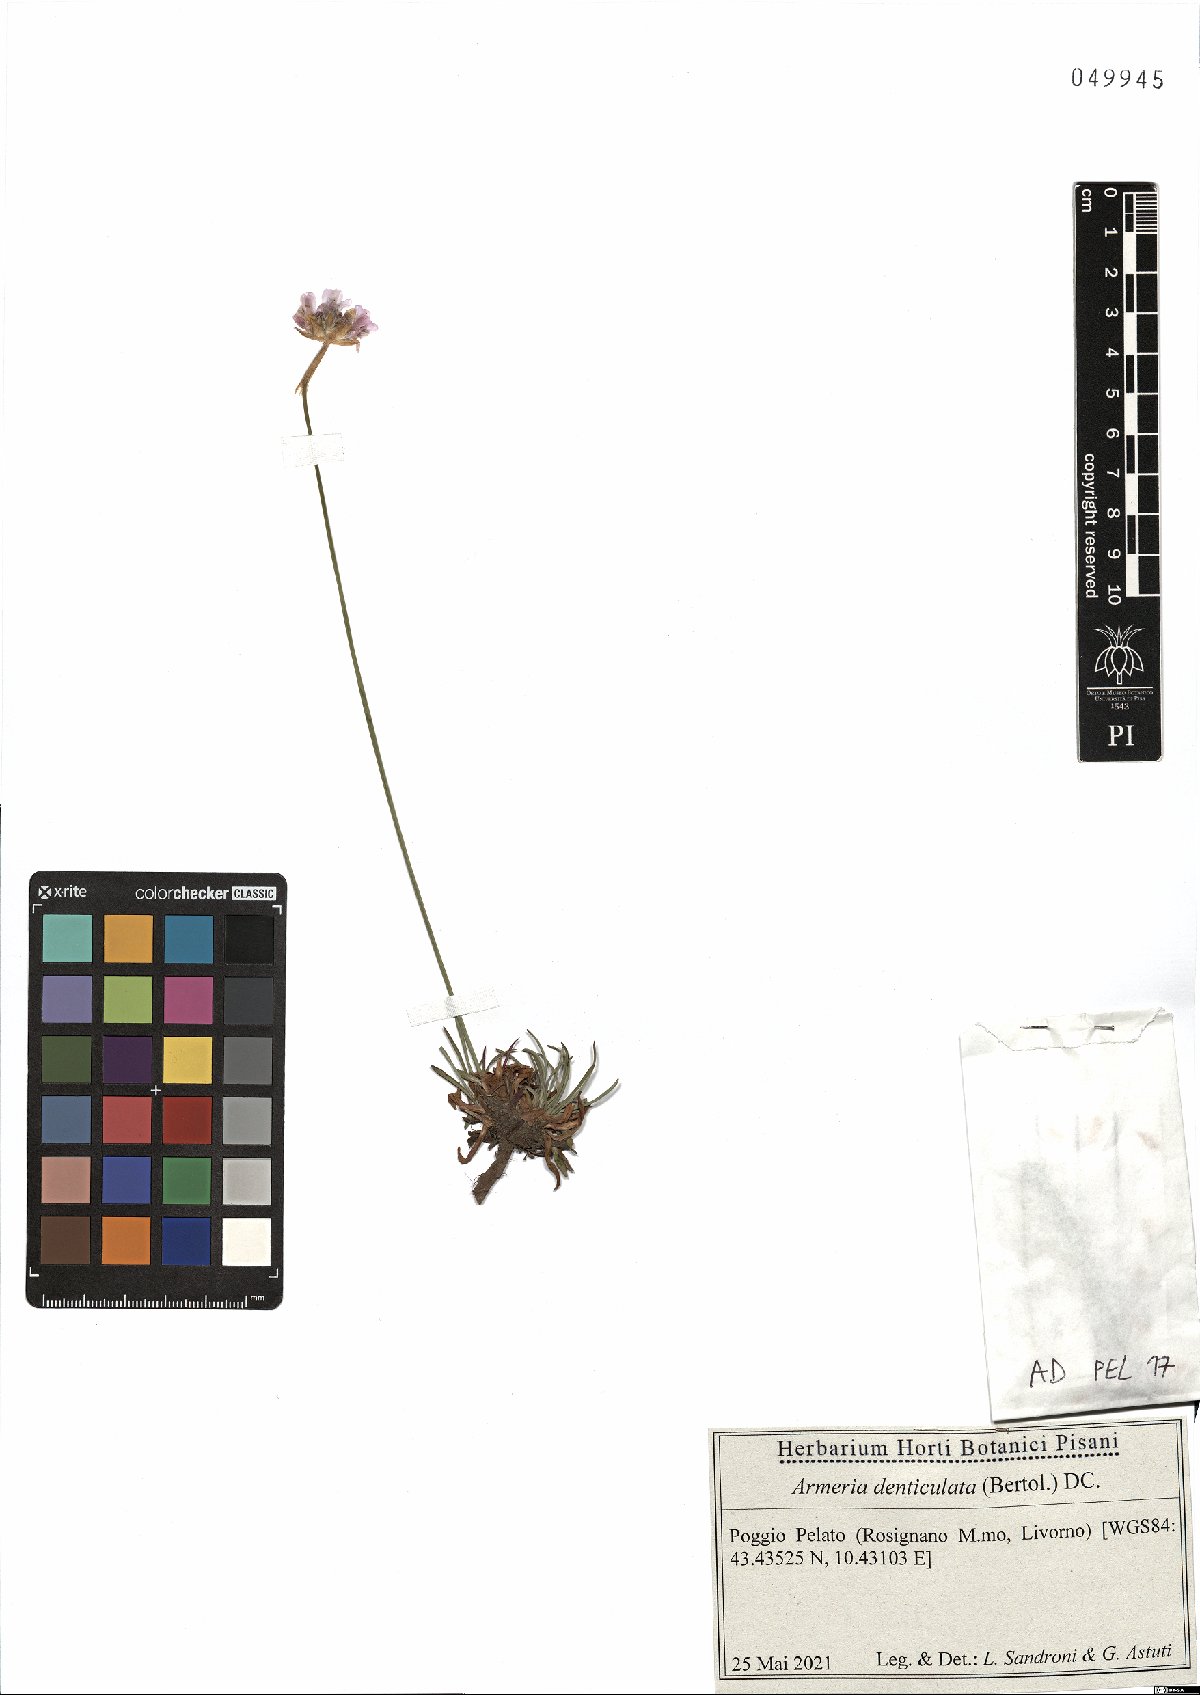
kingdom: Plantae
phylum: Tracheophyta
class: Magnoliopsida
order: Caryophyllales
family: Plumbaginaceae
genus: Armeria
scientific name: Armeria denticulata
